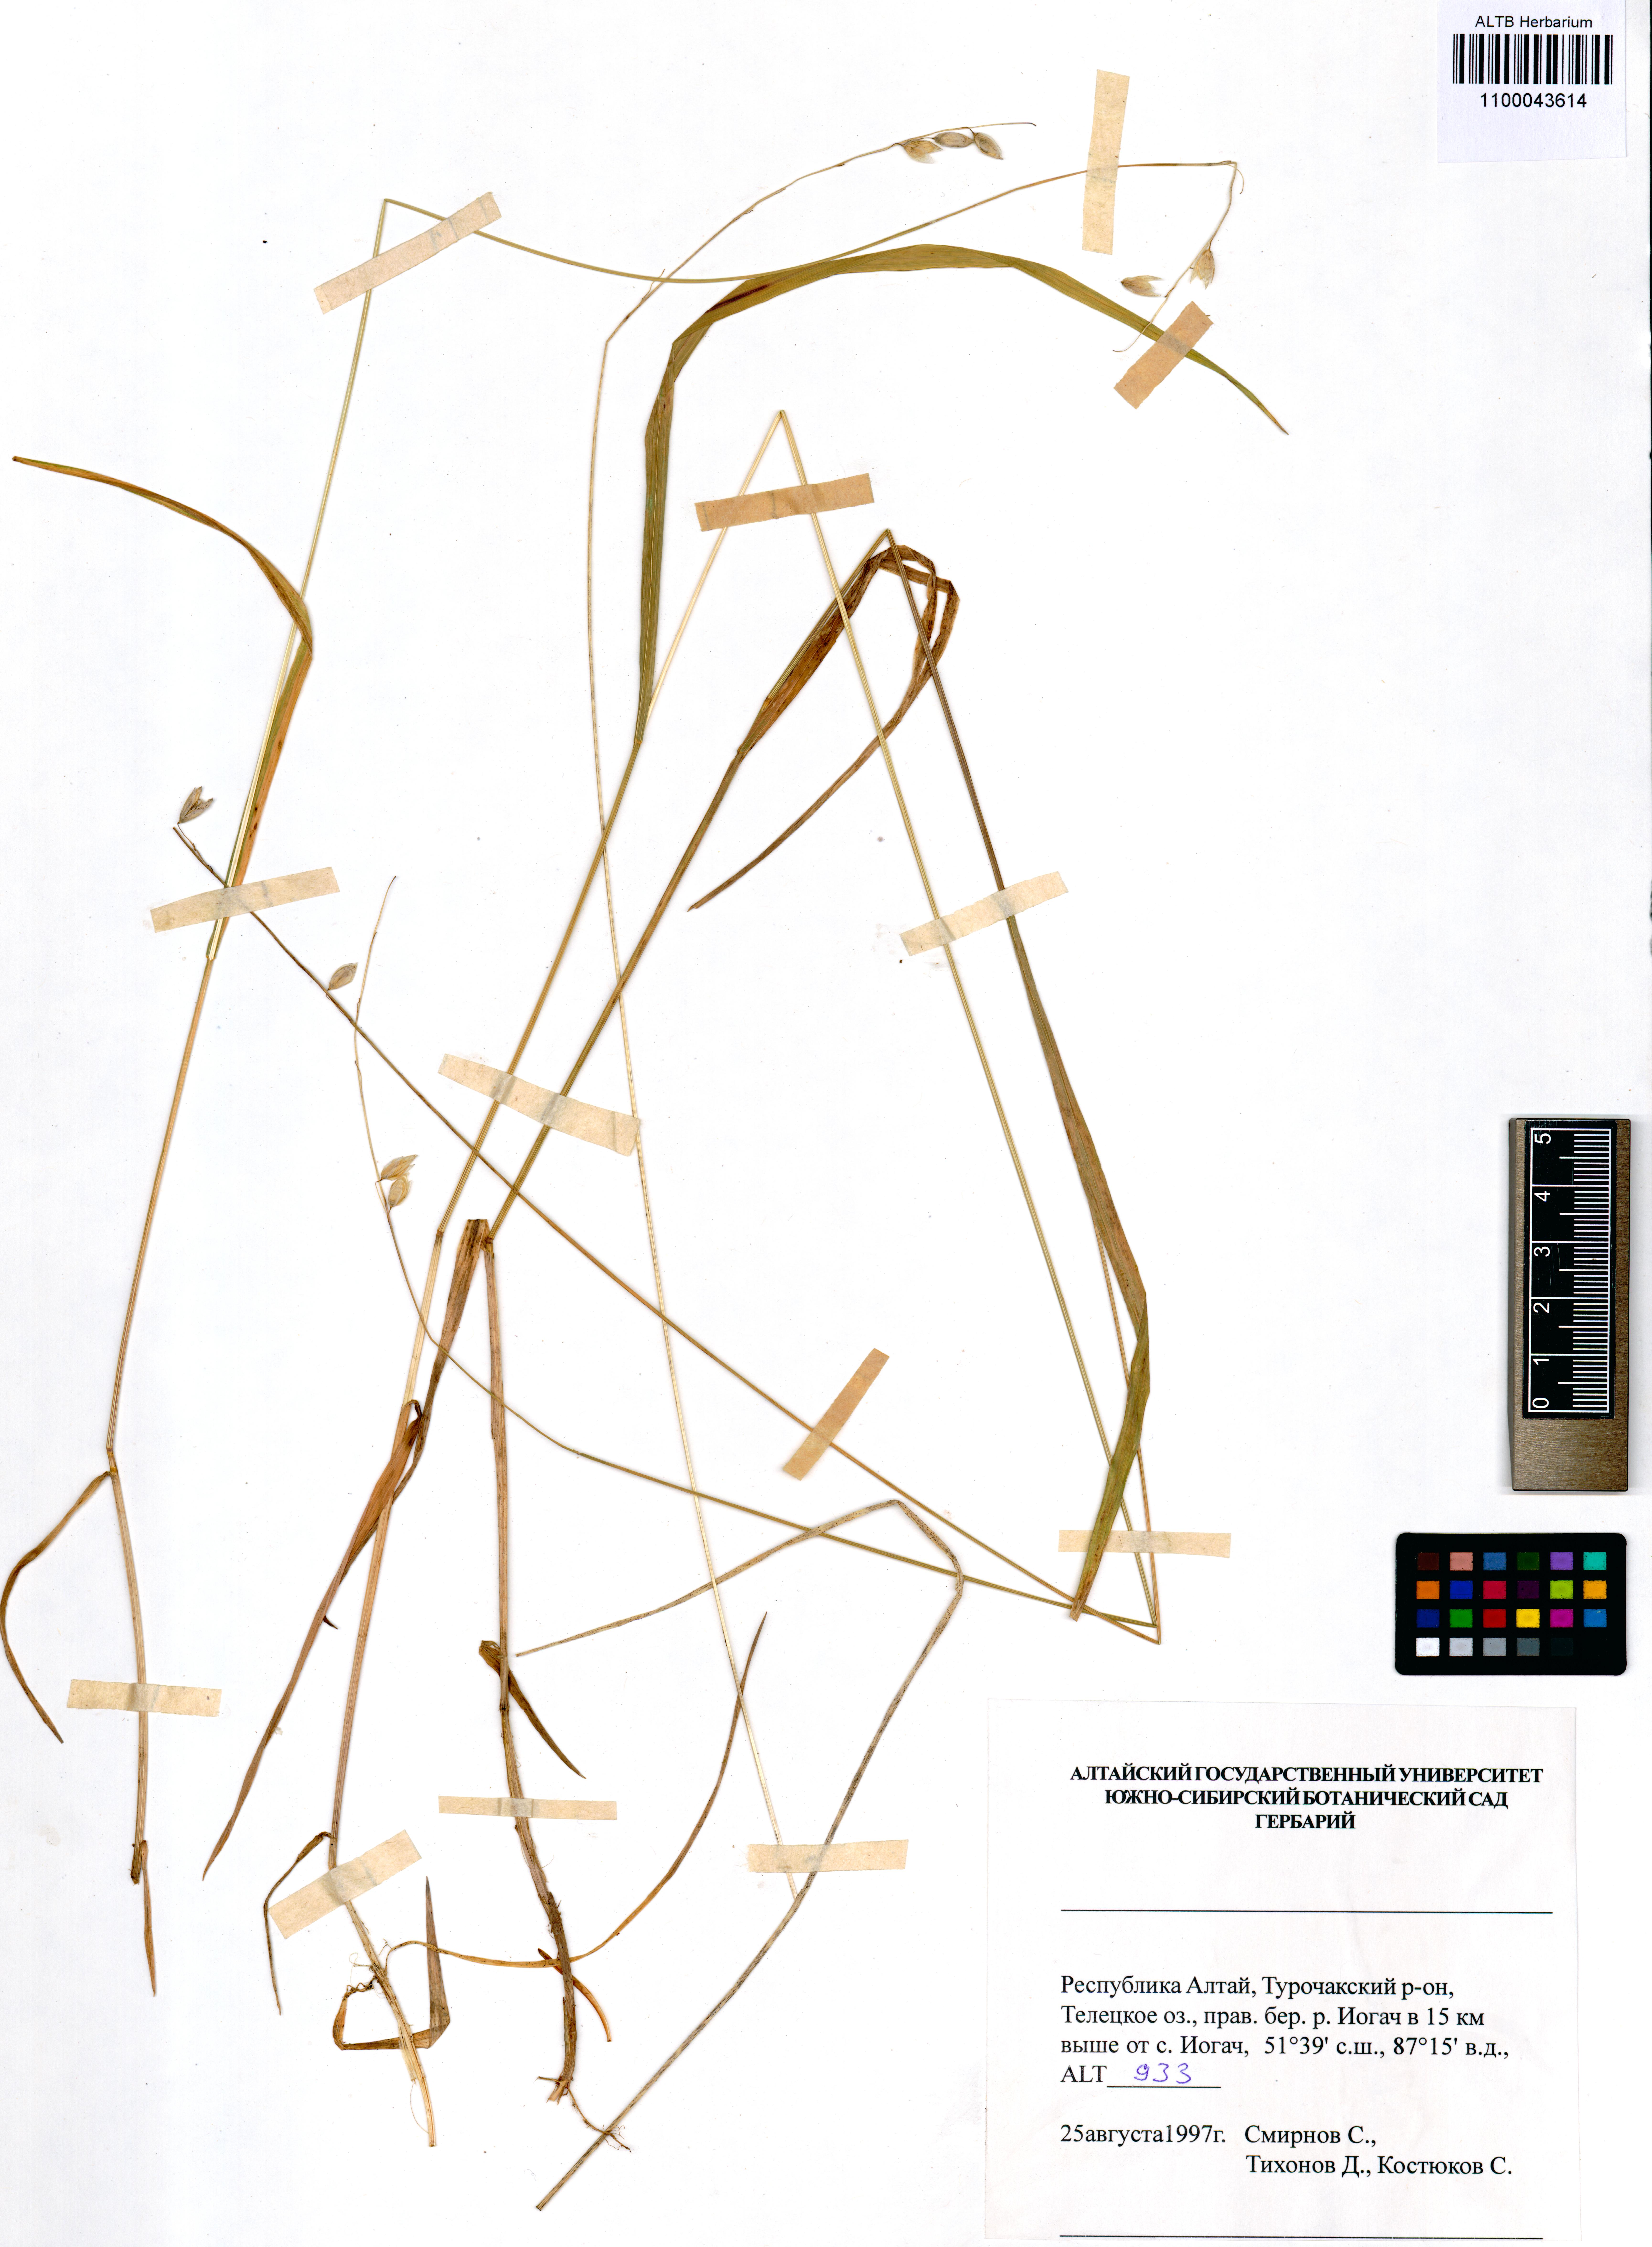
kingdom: Plantae
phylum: Tracheophyta
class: Liliopsida
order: Poales
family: Poaceae
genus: Melica
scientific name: Melica nutans
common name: Mountain melick
